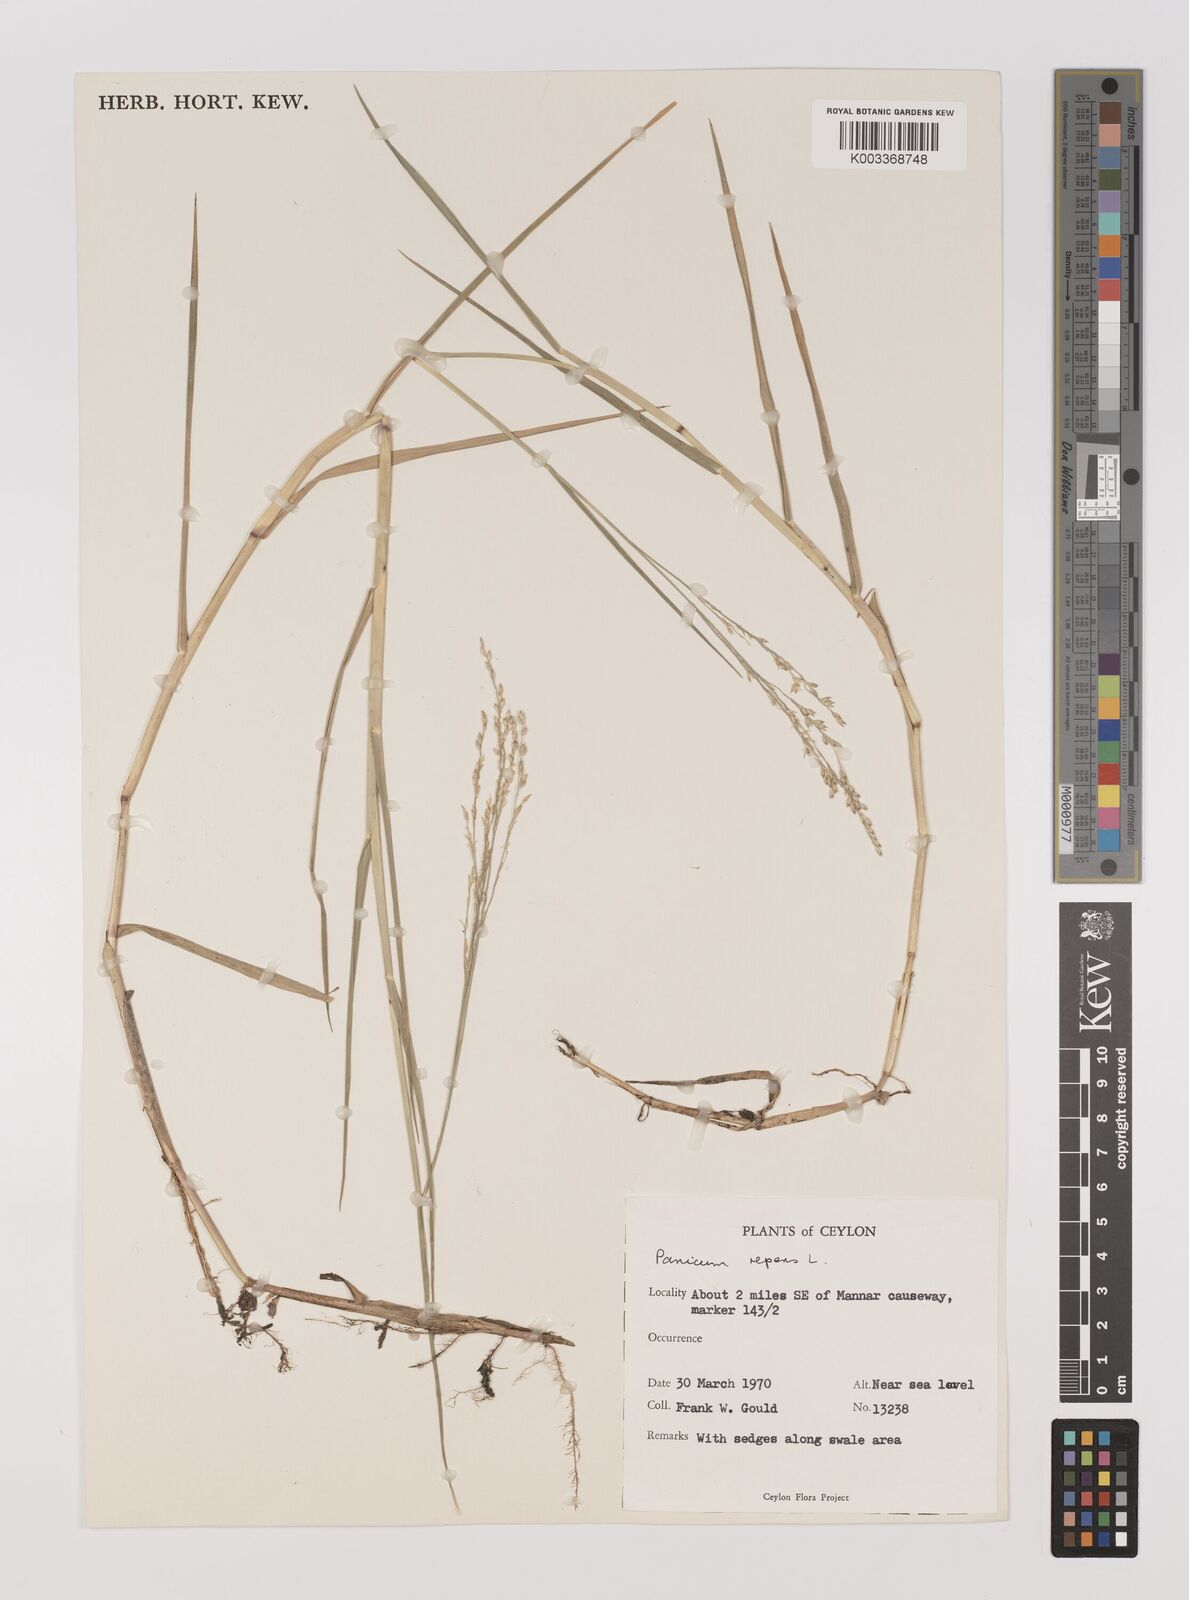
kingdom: Plantae
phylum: Tracheophyta
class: Liliopsida
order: Poales
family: Poaceae
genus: Panicum
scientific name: Panicum repens
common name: Torpedo grass
